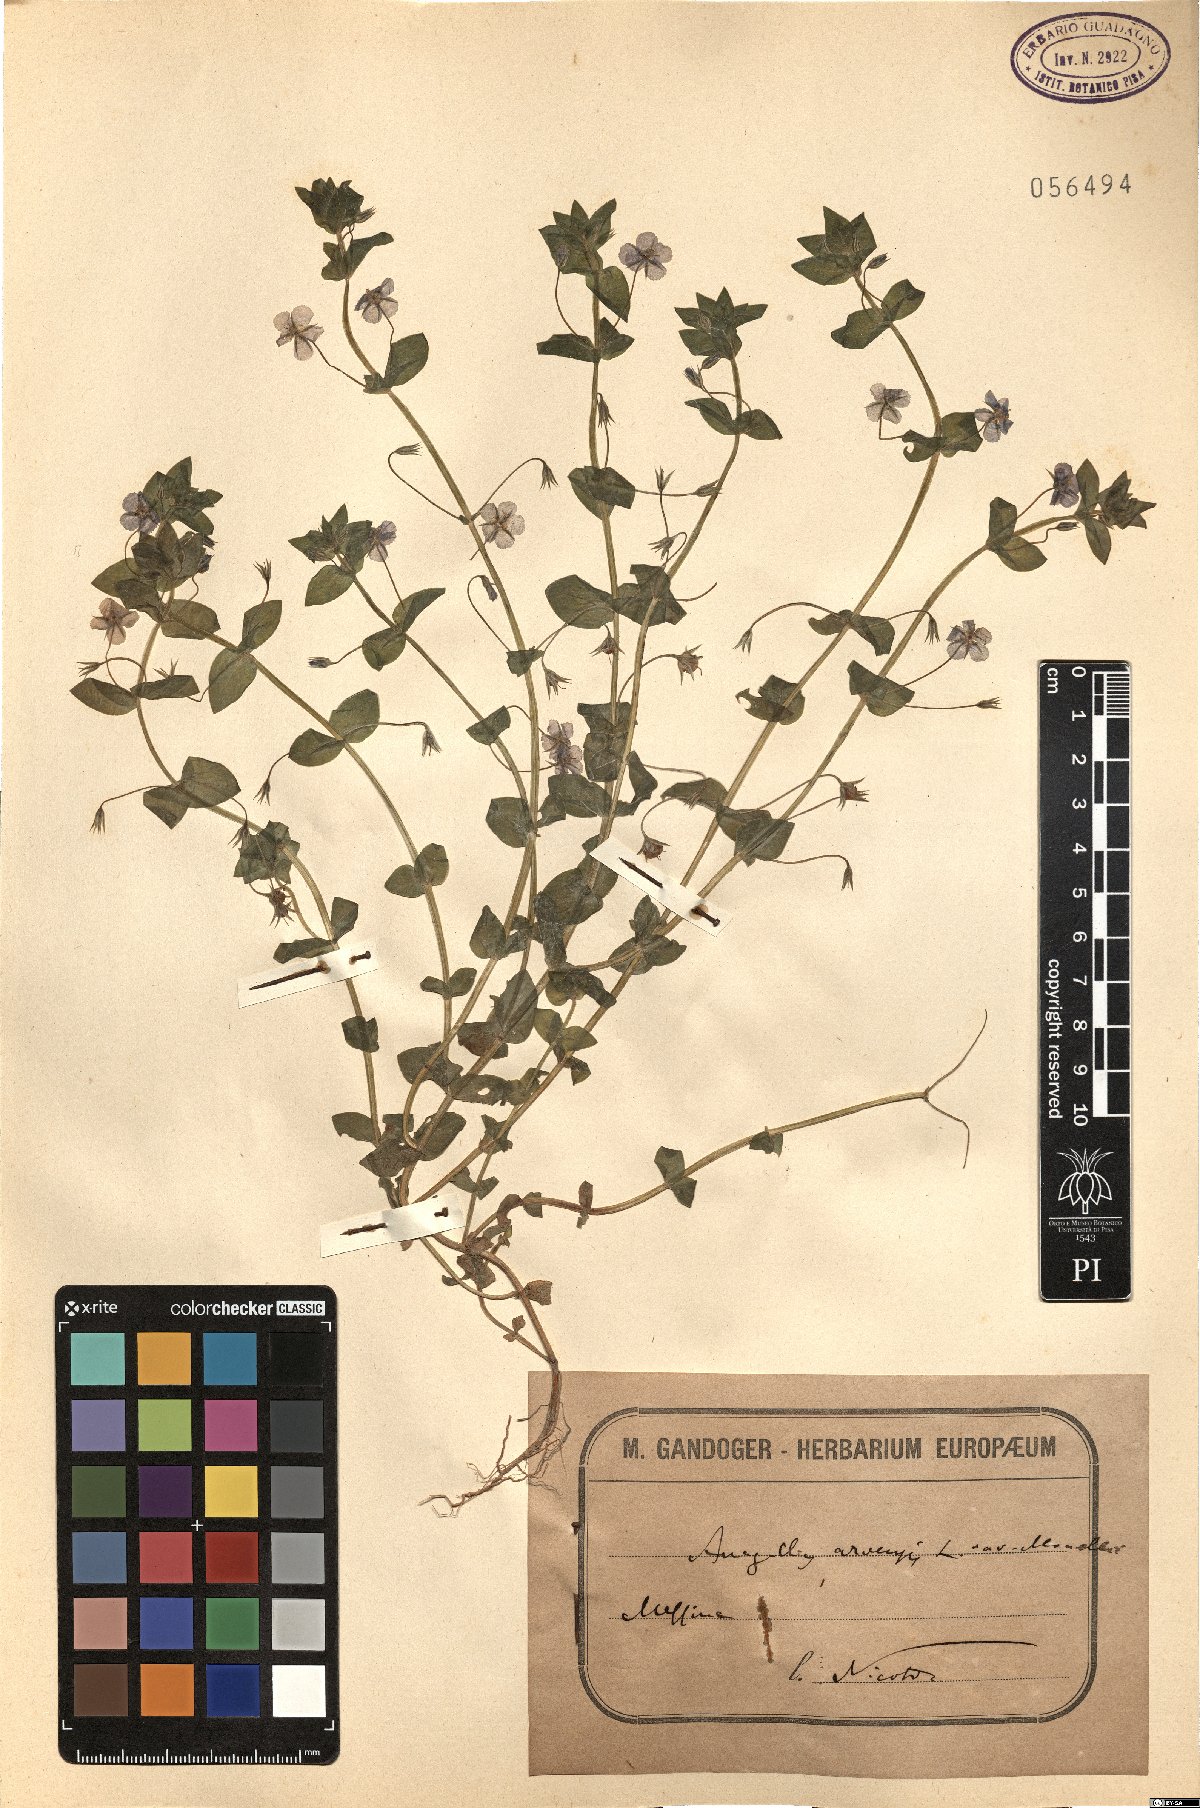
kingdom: Plantae
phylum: Tracheophyta
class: Magnoliopsida
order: Ericales
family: Primulaceae
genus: Lysimachia
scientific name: Lysimachia arvensis
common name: Scarlet pimpernel
